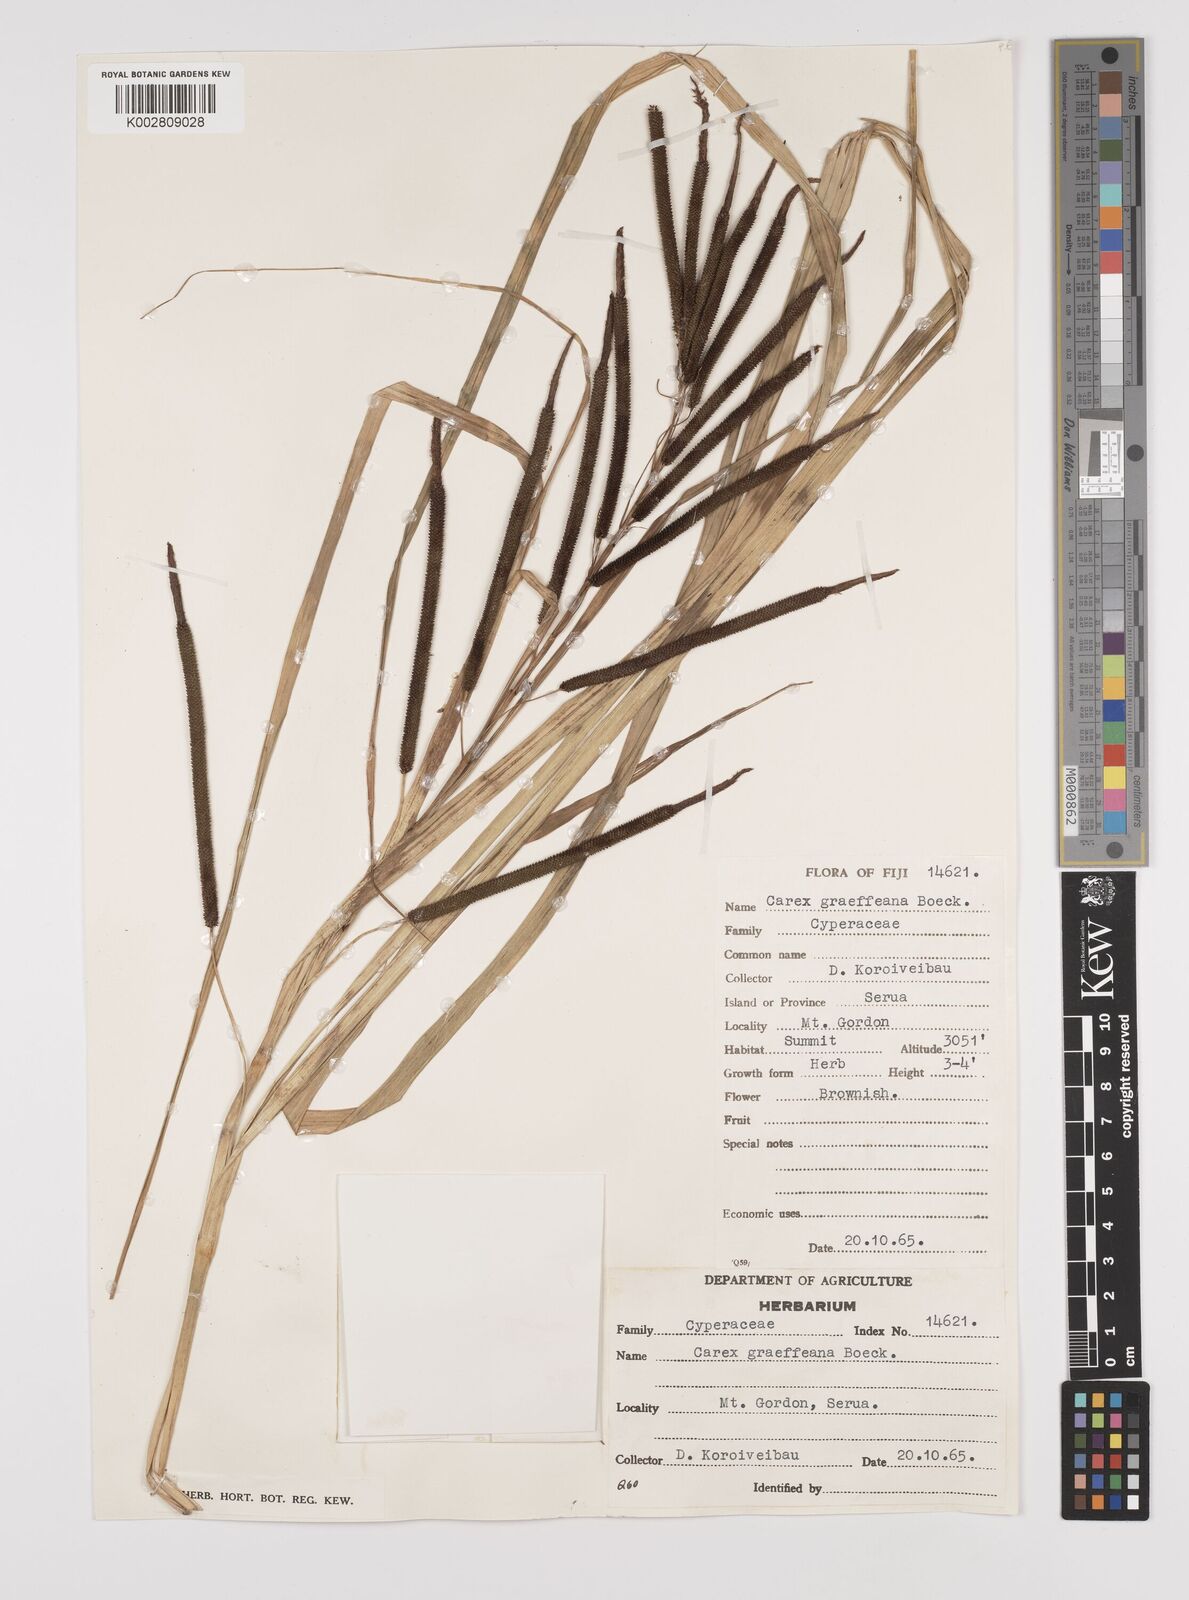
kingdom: Plantae
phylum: Tracheophyta
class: Liliopsida
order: Poales
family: Cyperaceae
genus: Carex
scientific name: Carex graeffeana
